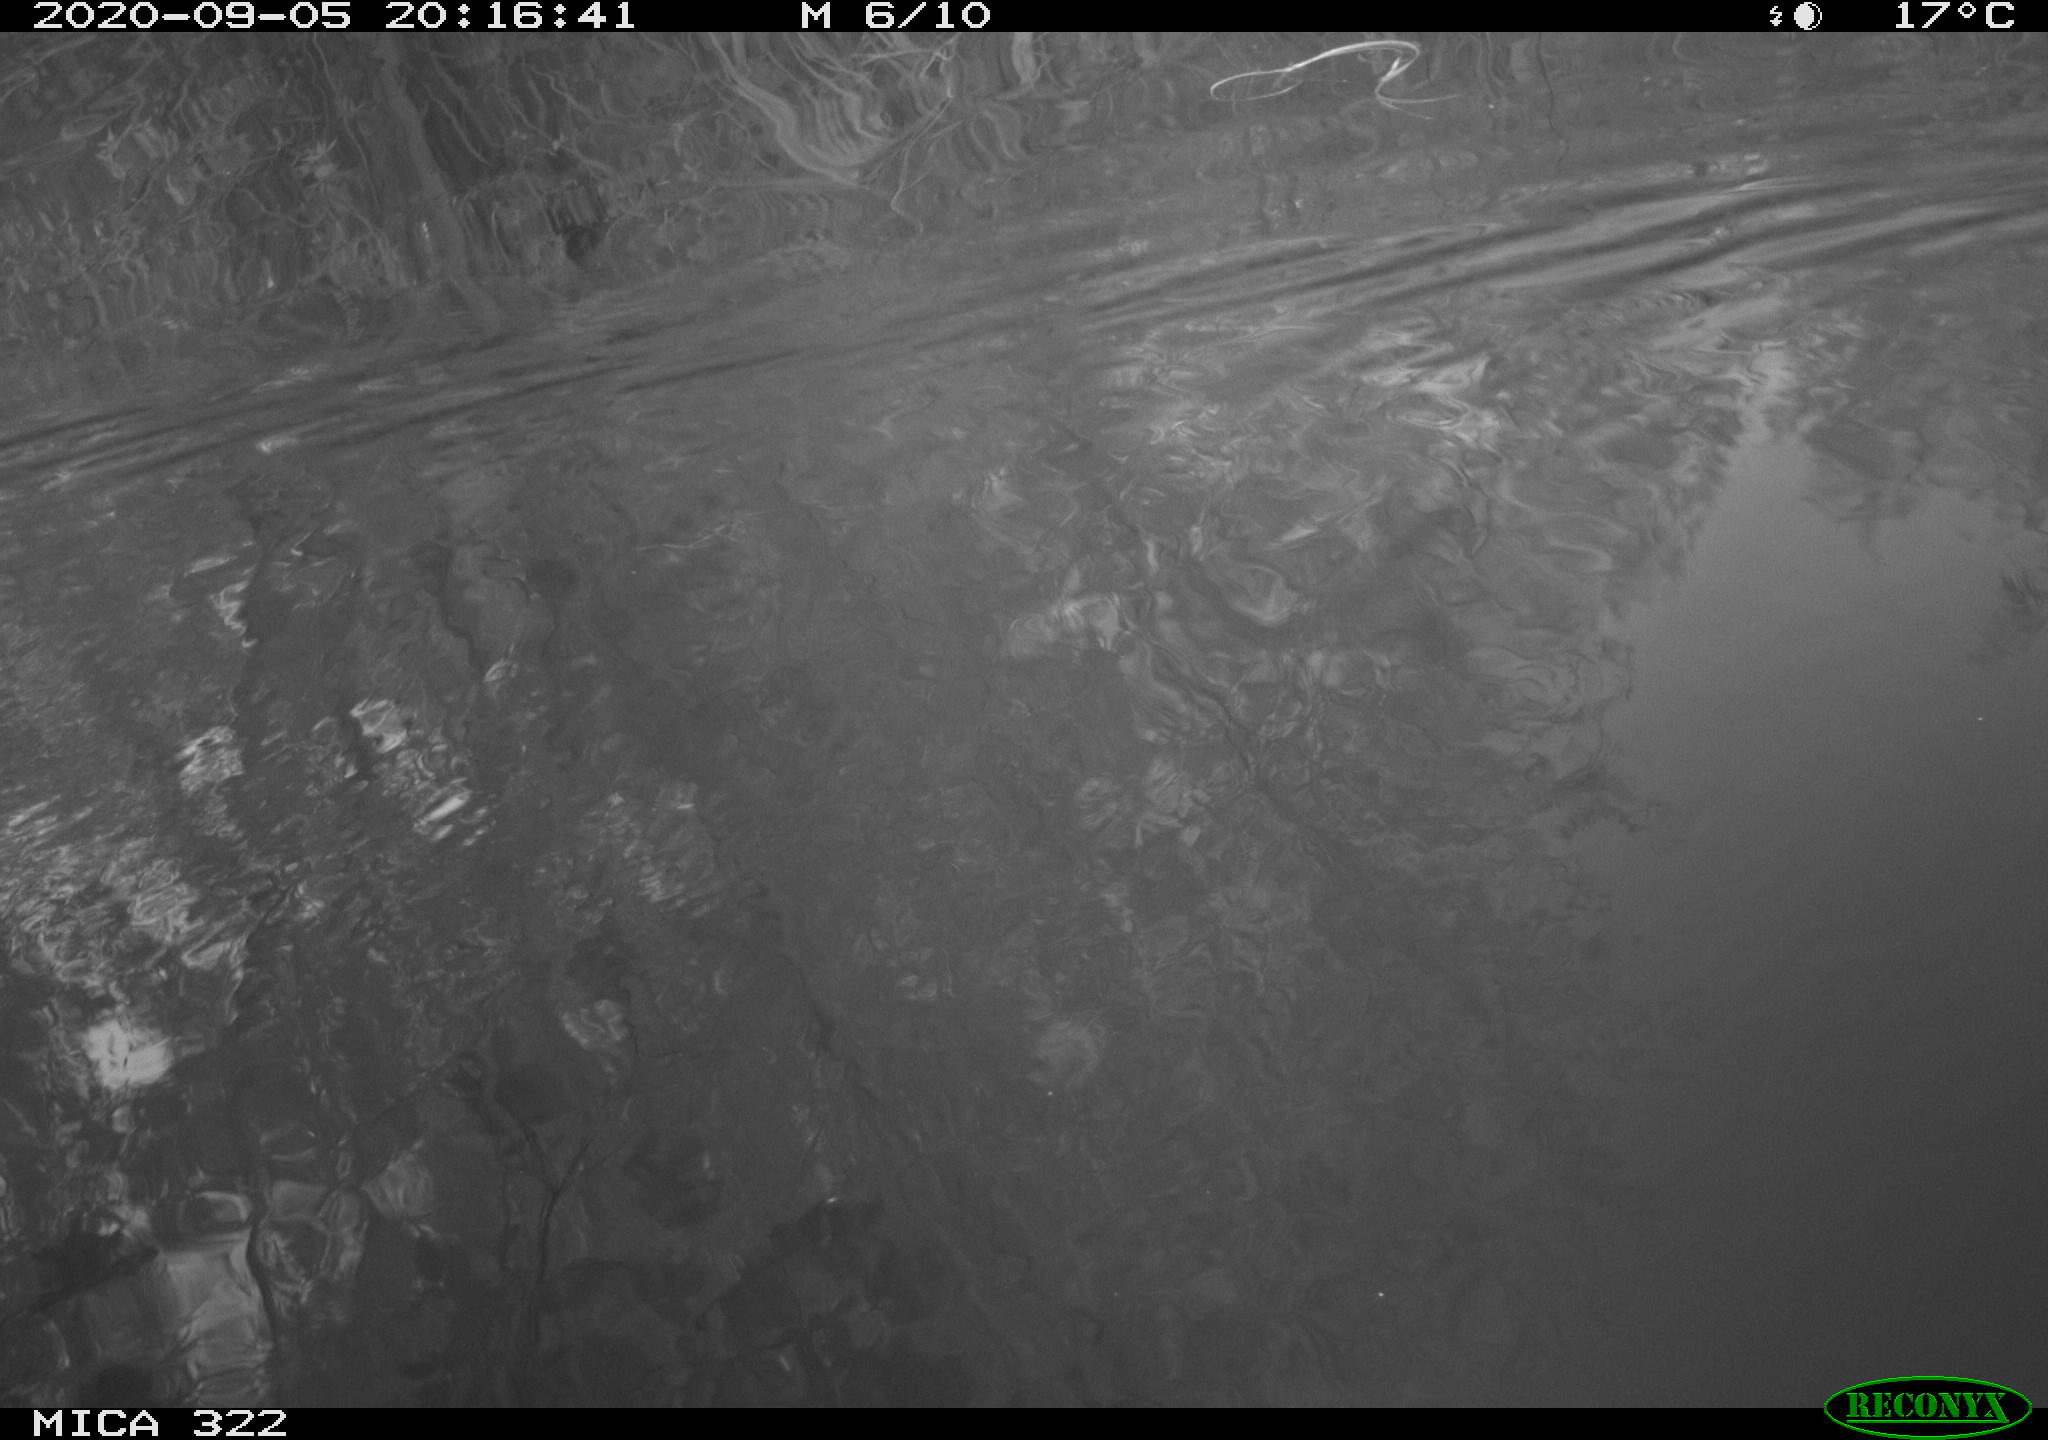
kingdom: Animalia
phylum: Chordata
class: Aves
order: Gruiformes
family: Rallidae
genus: Fulica
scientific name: Fulica atra
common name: Eurasian coot
